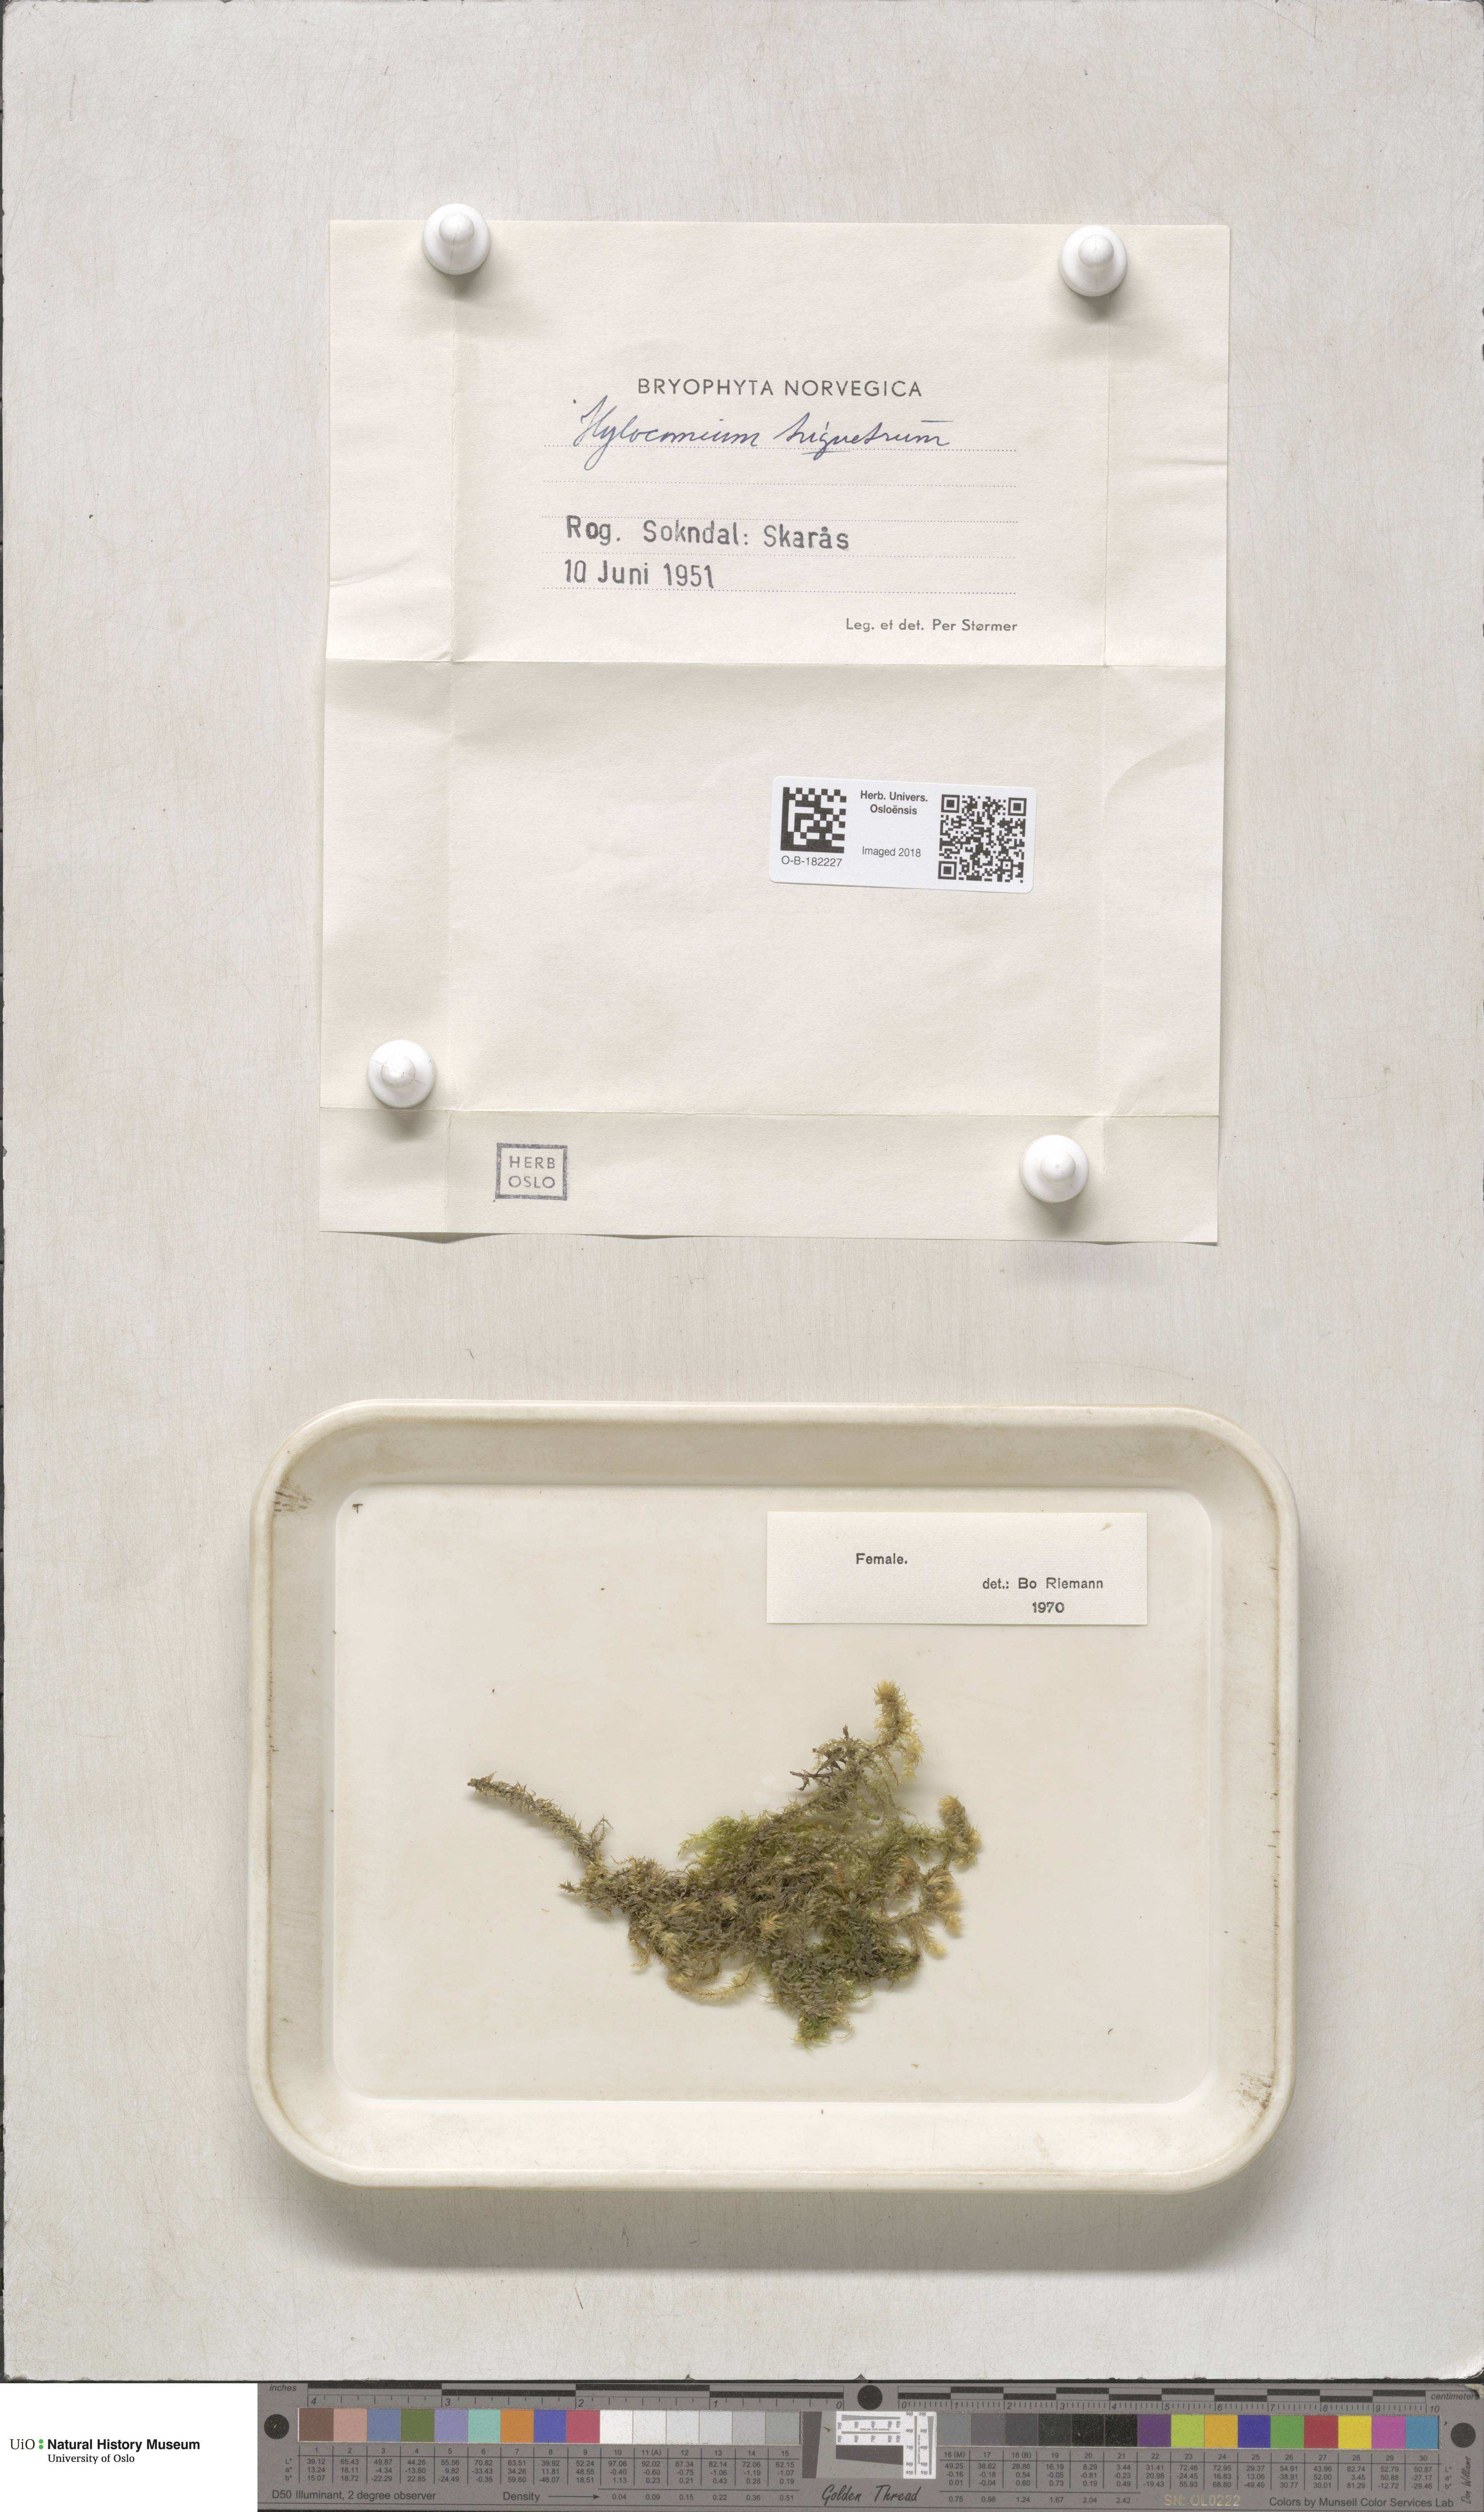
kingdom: Plantae
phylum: Bryophyta
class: Bryopsida
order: Hypnales
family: Hylocomiaceae
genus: Hylocomiadelphus
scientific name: Hylocomiadelphus triquetrus
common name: Rough goose neck moss
